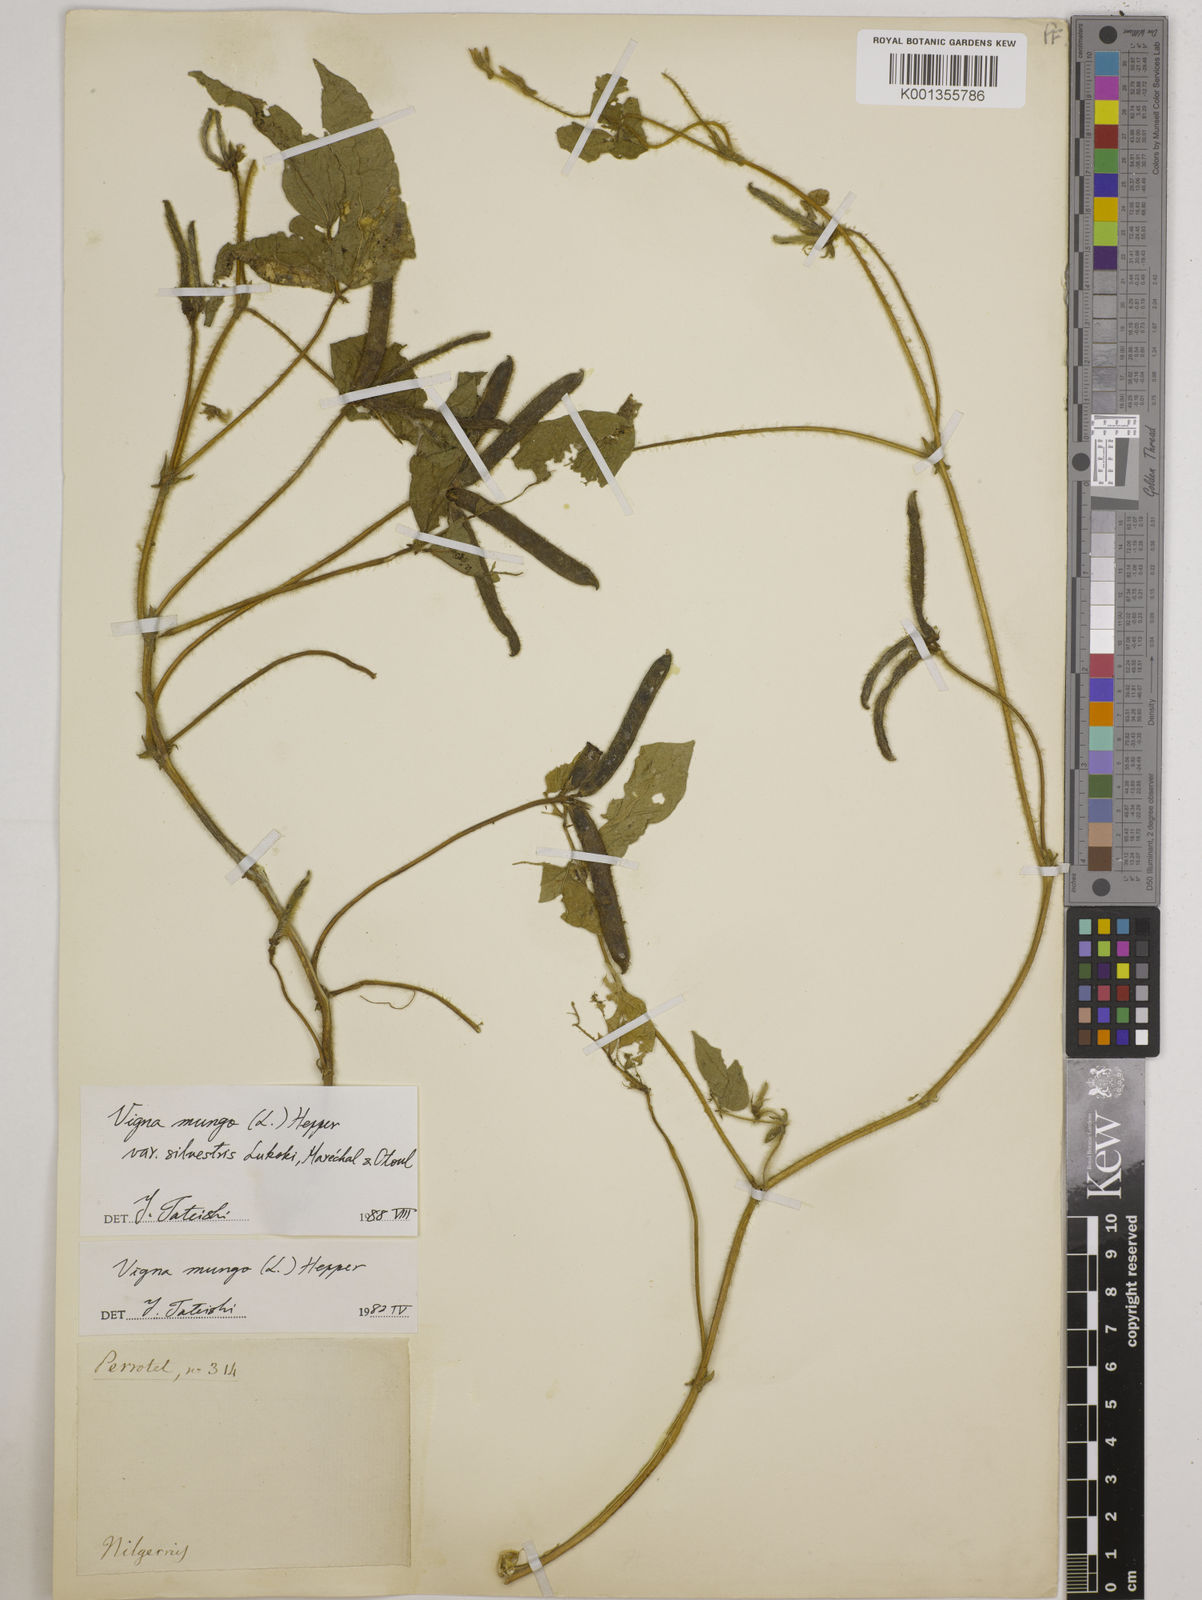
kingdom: Plantae
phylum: Tracheophyta
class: Magnoliopsida
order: Fabales
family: Fabaceae
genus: Vigna
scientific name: Vigna mungo
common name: Black gram
